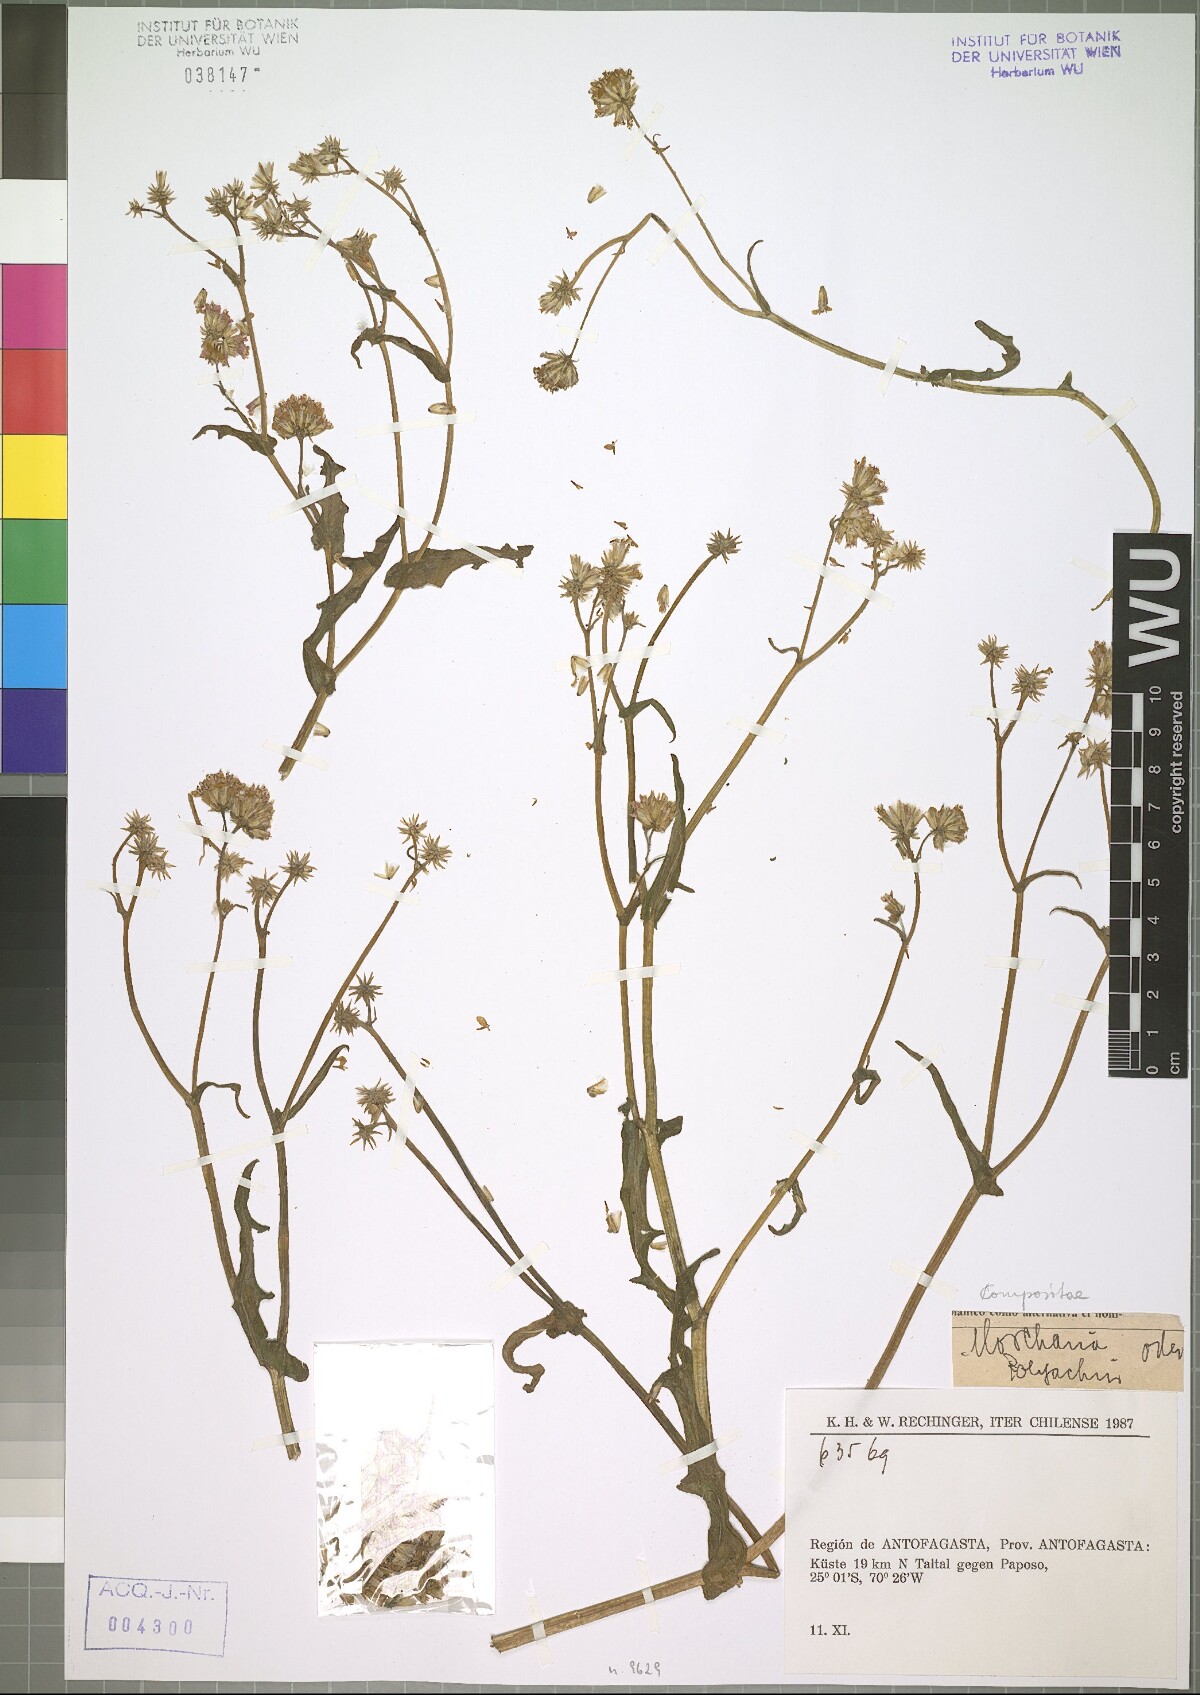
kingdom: Plantae
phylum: Tracheophyta
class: Magnoliopsida
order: Asterales
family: Asteraceae
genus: Polyachyrus
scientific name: Polyachyrus annuus
